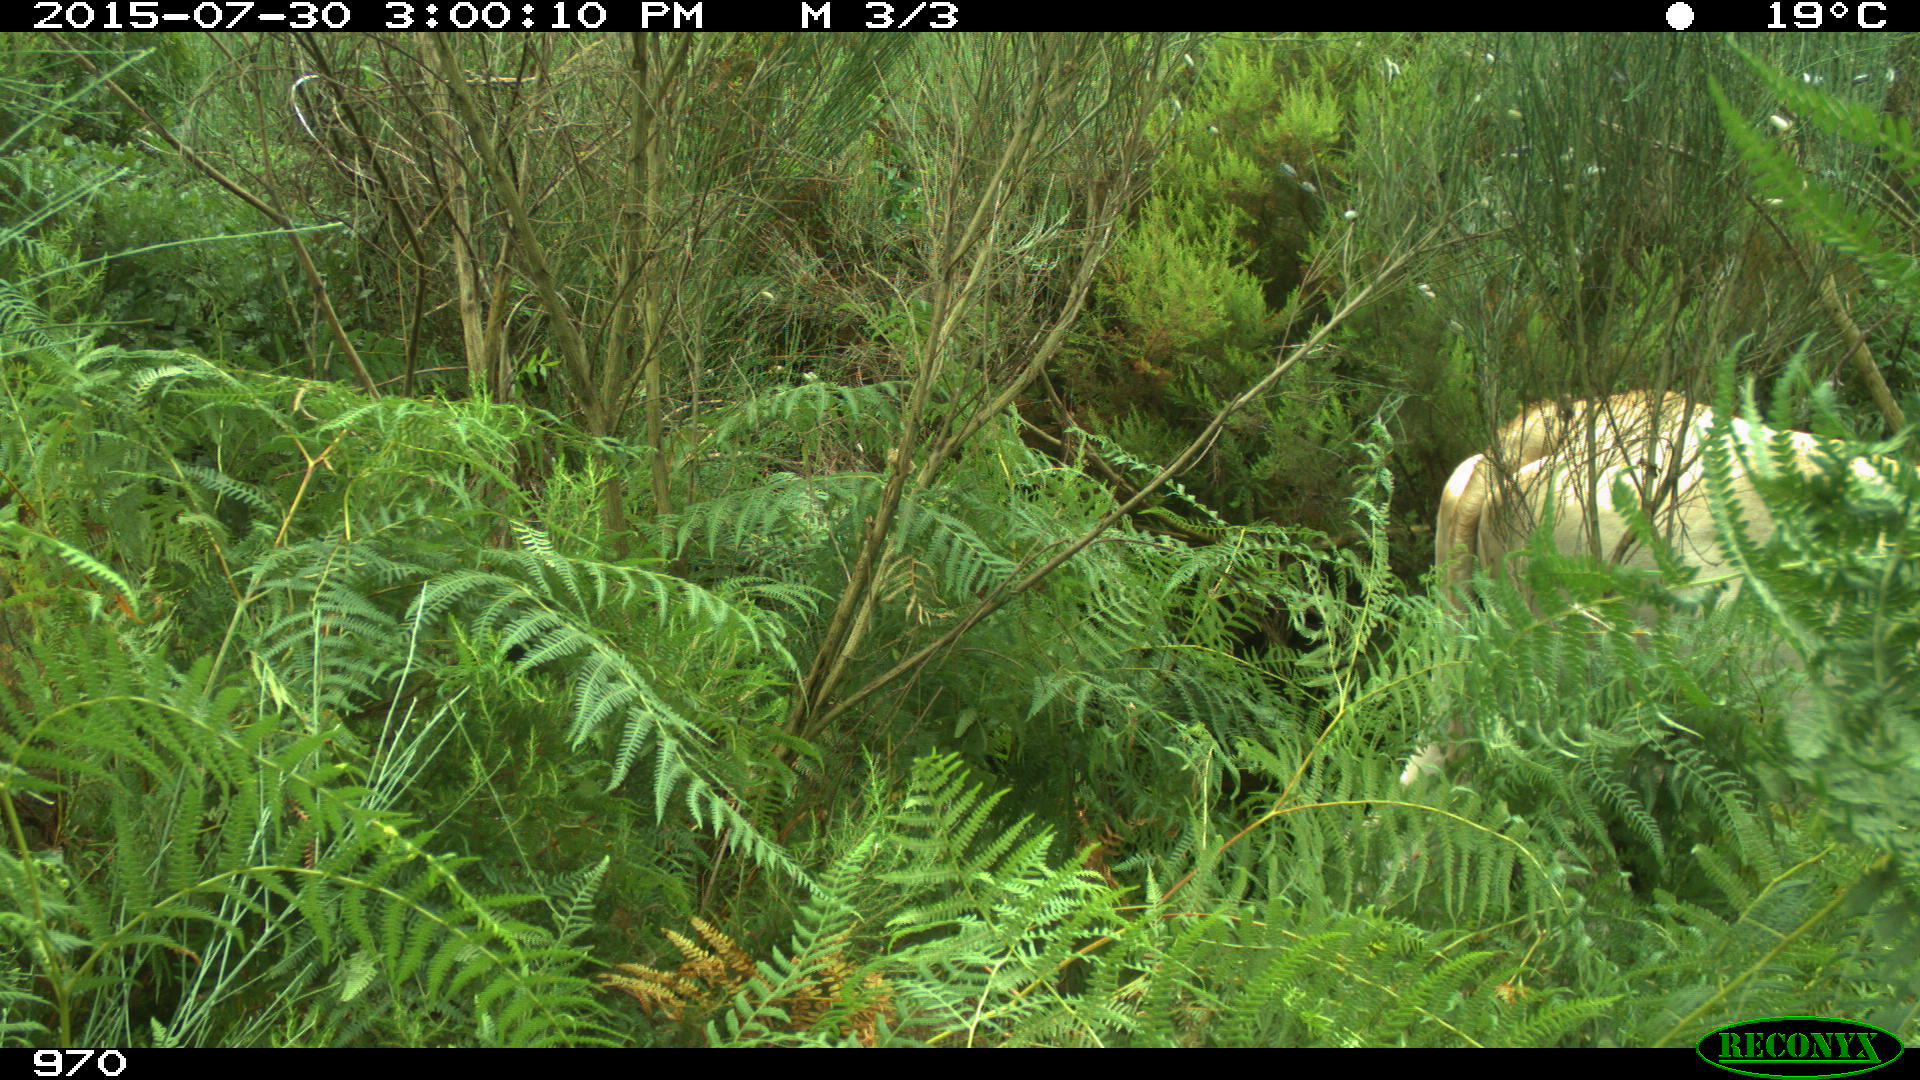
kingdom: Animalia
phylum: Chordata
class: Mammalia
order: Artiodactyla
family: Bovidae
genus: Bos
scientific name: Bos taurus
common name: Domesticated cattle
